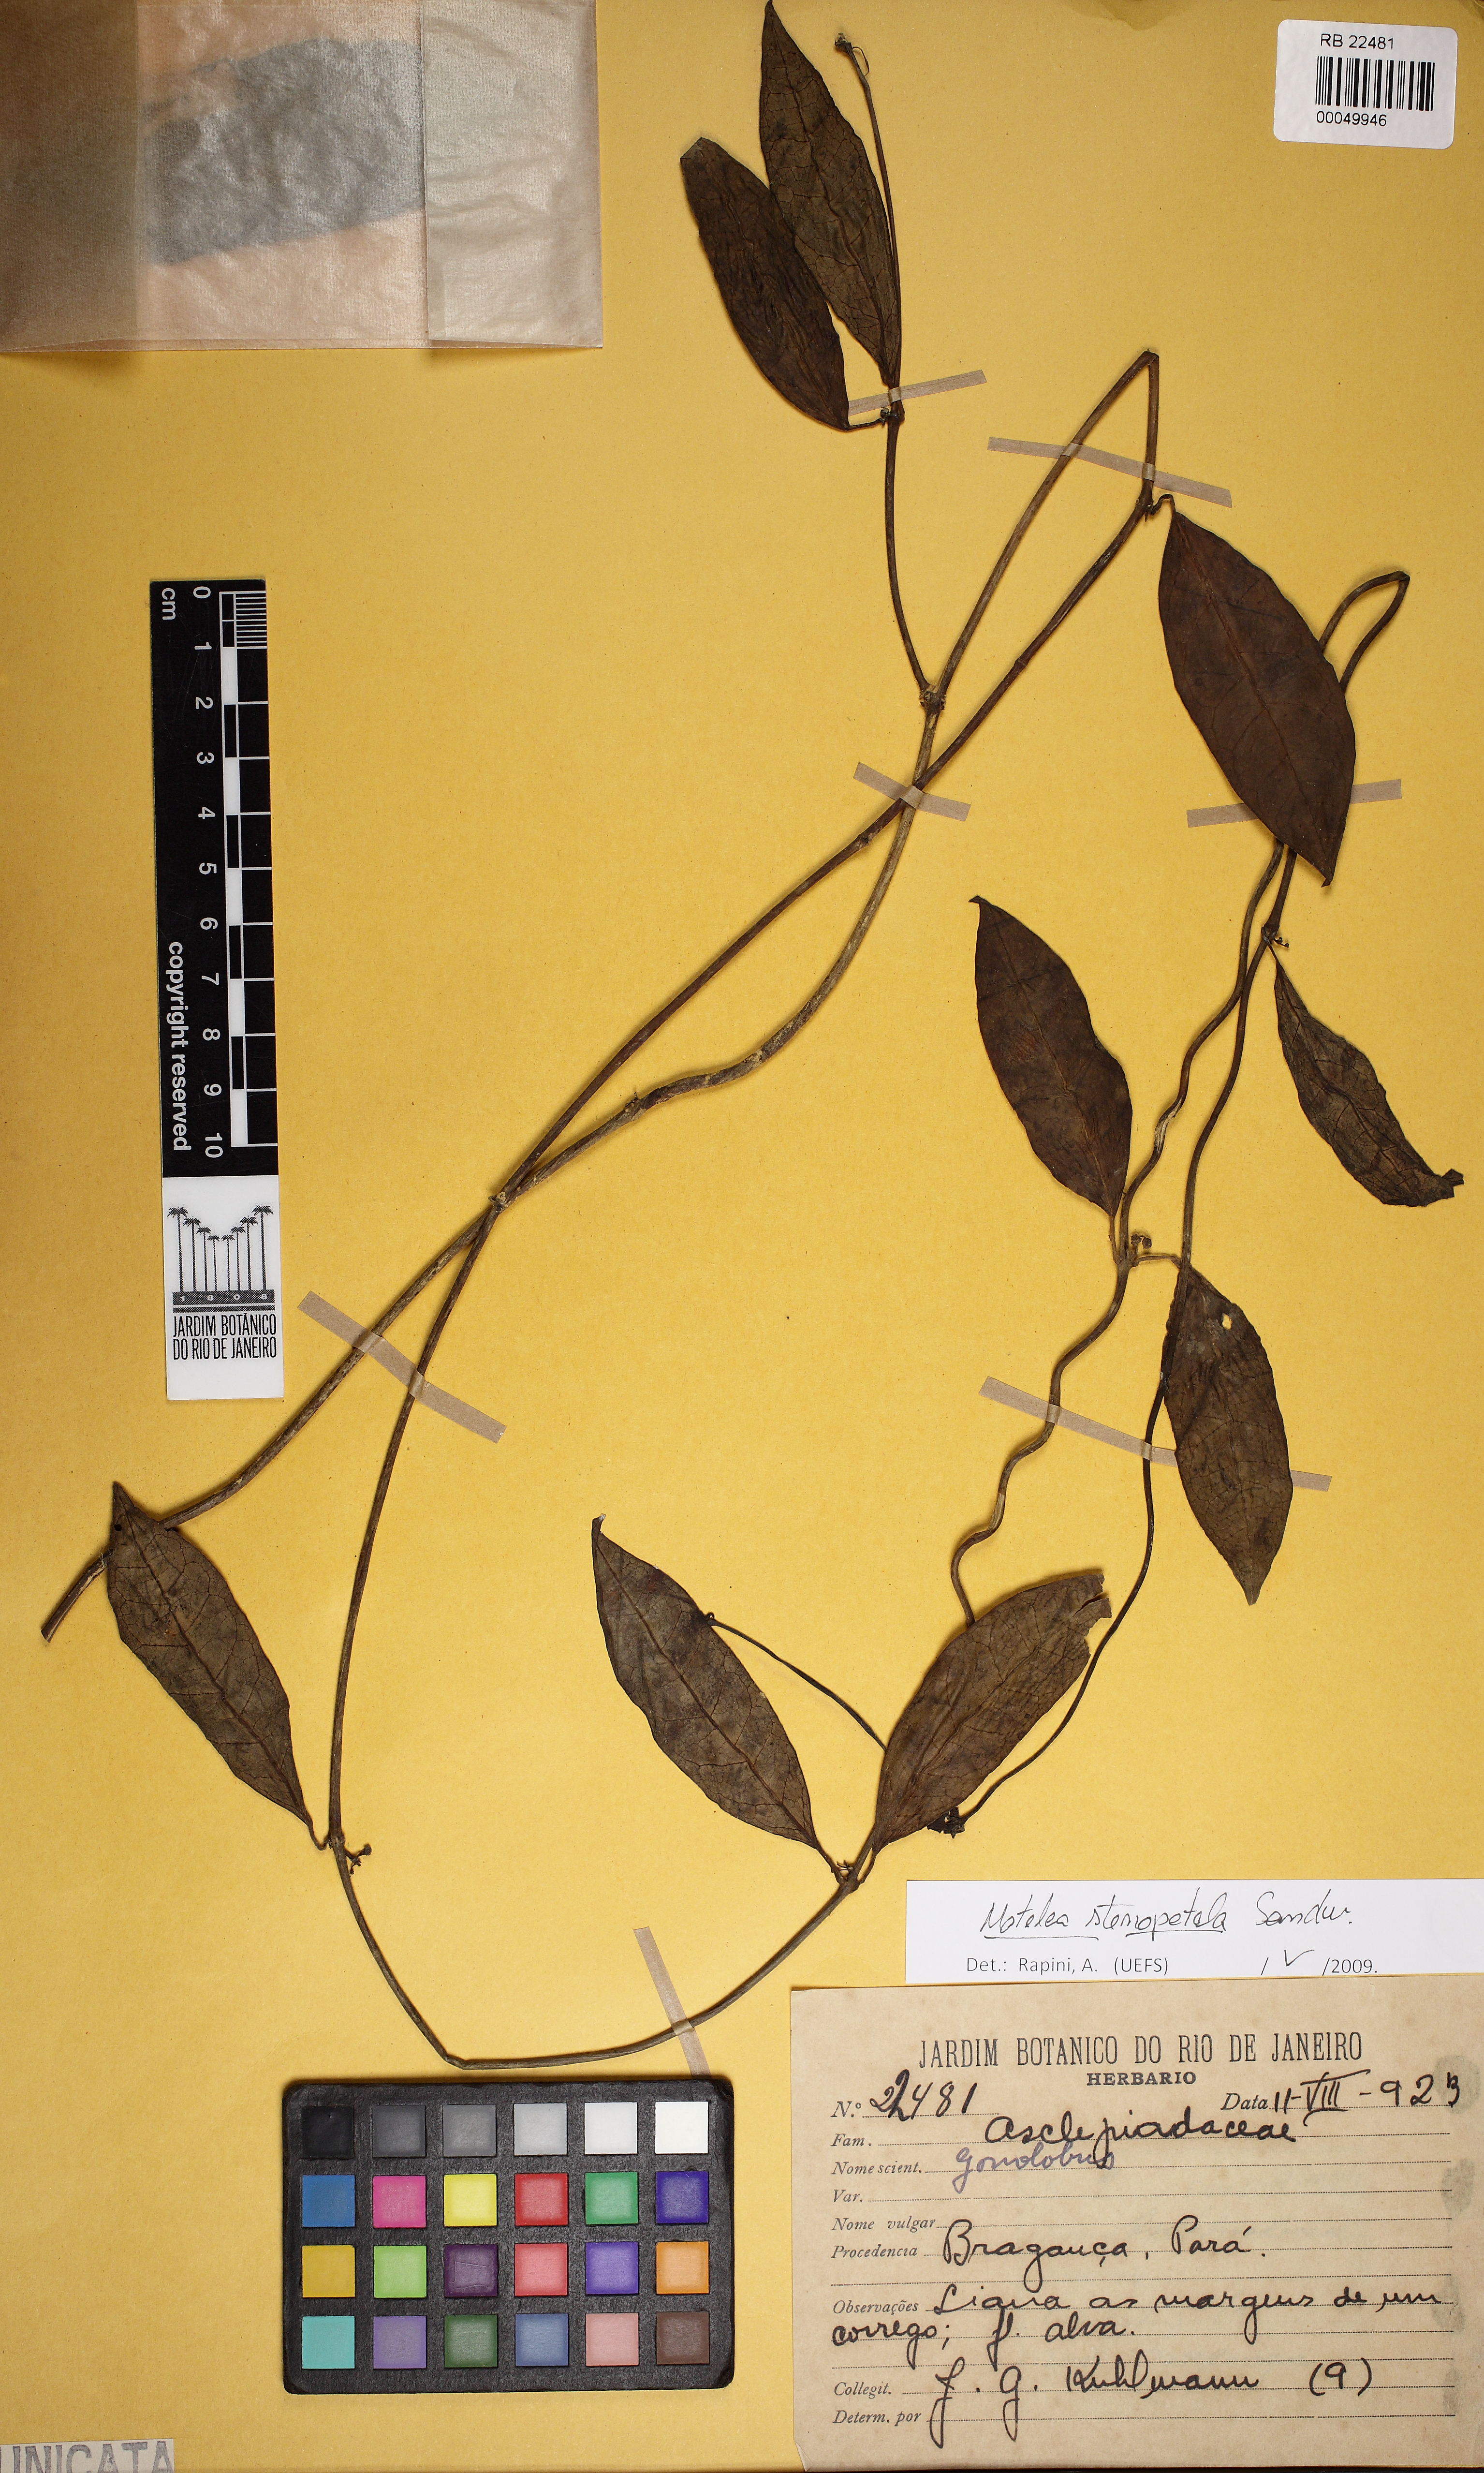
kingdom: Plantae
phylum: Tracheophyta
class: Magnoliopsida
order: Gentianales
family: Apocynaceae
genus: Matelea
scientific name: Matelea stenopetala
